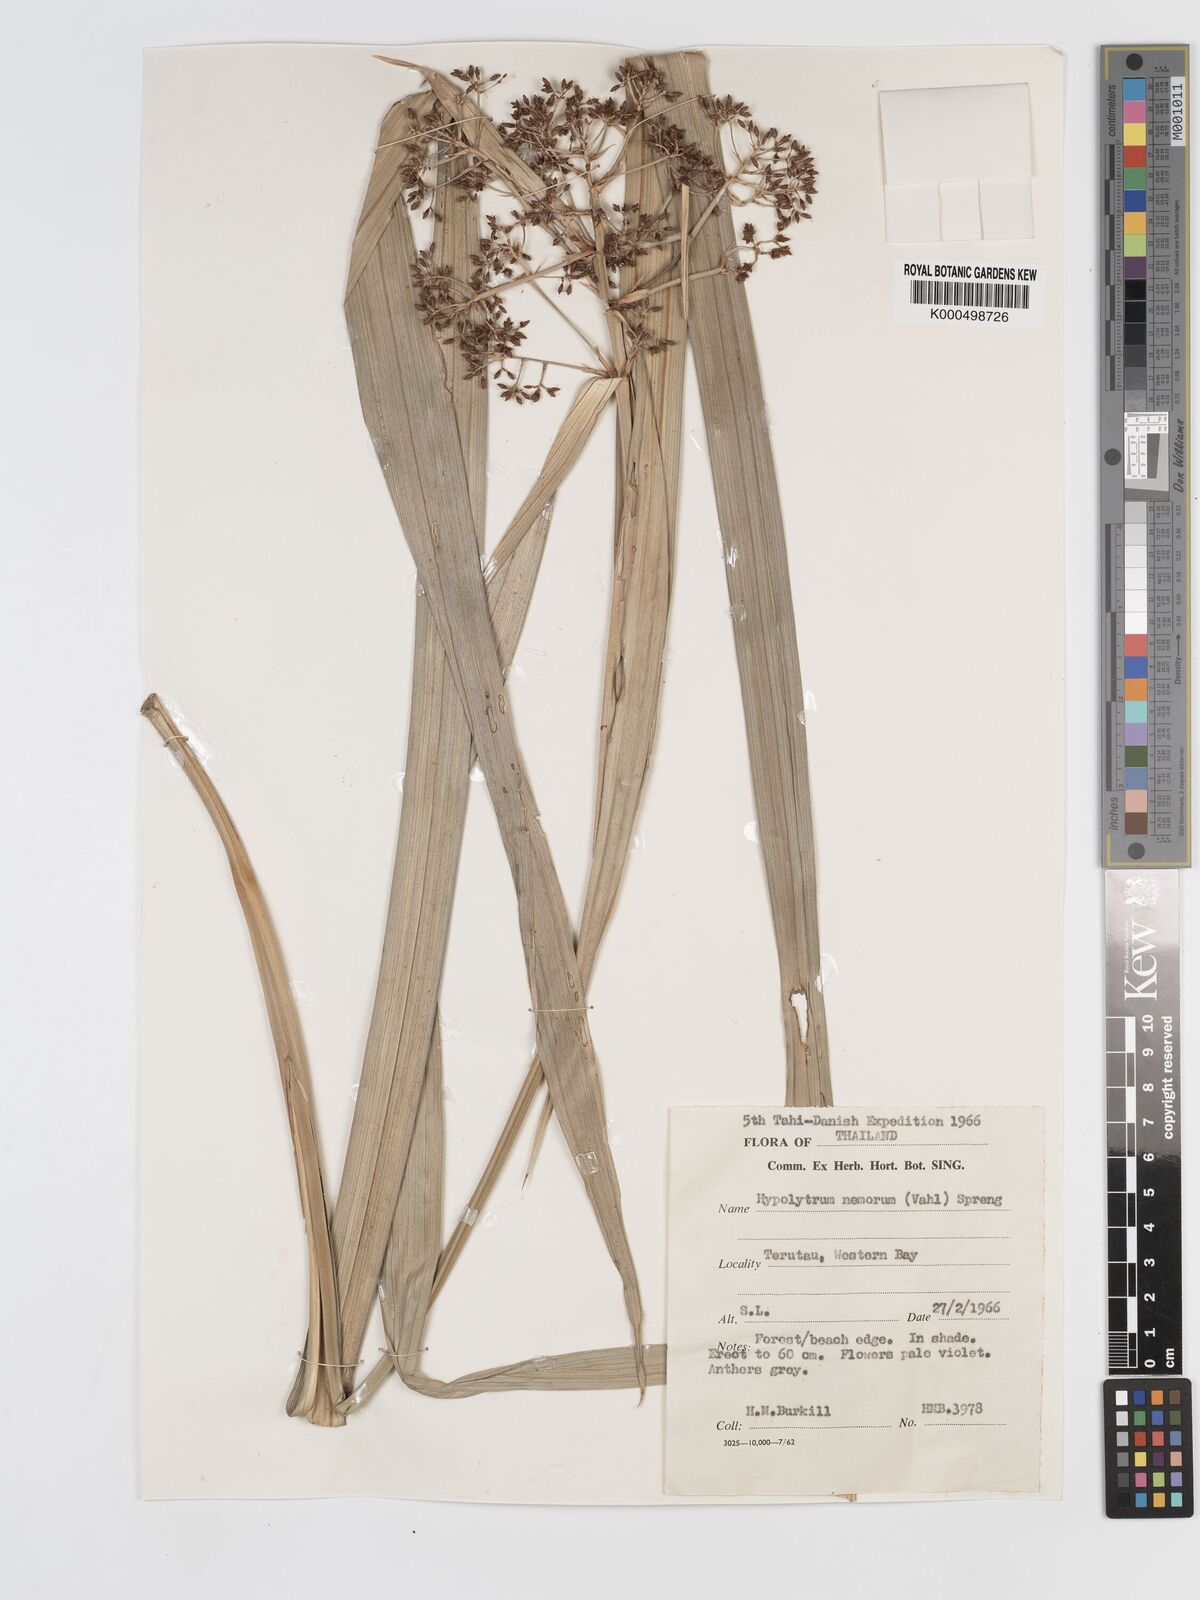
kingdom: Plantae
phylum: Tracheophyta
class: Liliopsida
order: Poales
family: Cyperaceae
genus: Hypolytrum
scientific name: Hypolytrum nemorum
